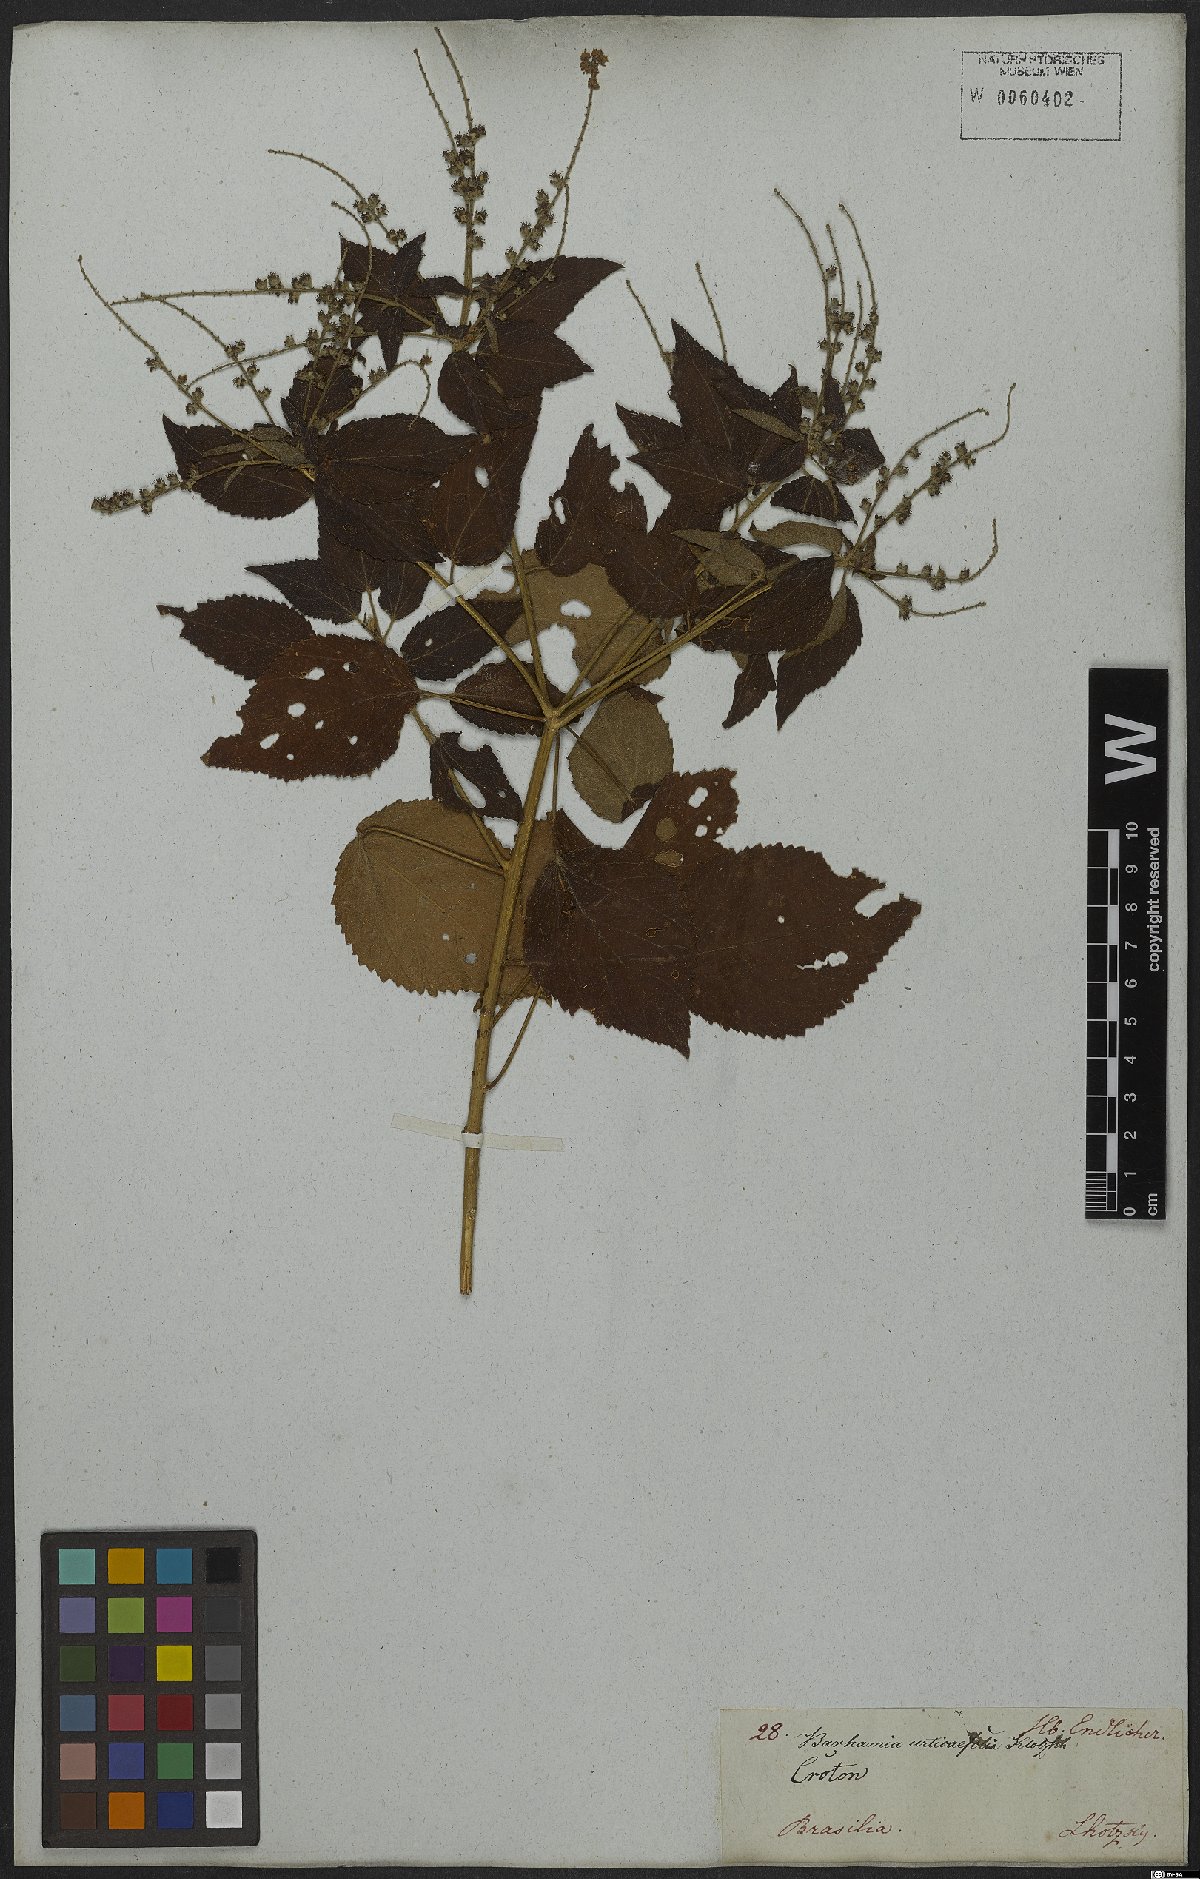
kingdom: Plantae
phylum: Tracheophyta
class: Magnoliopsida
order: Malpighiales
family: Euphorbiaceae
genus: Croton
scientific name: Croton urticifolius
